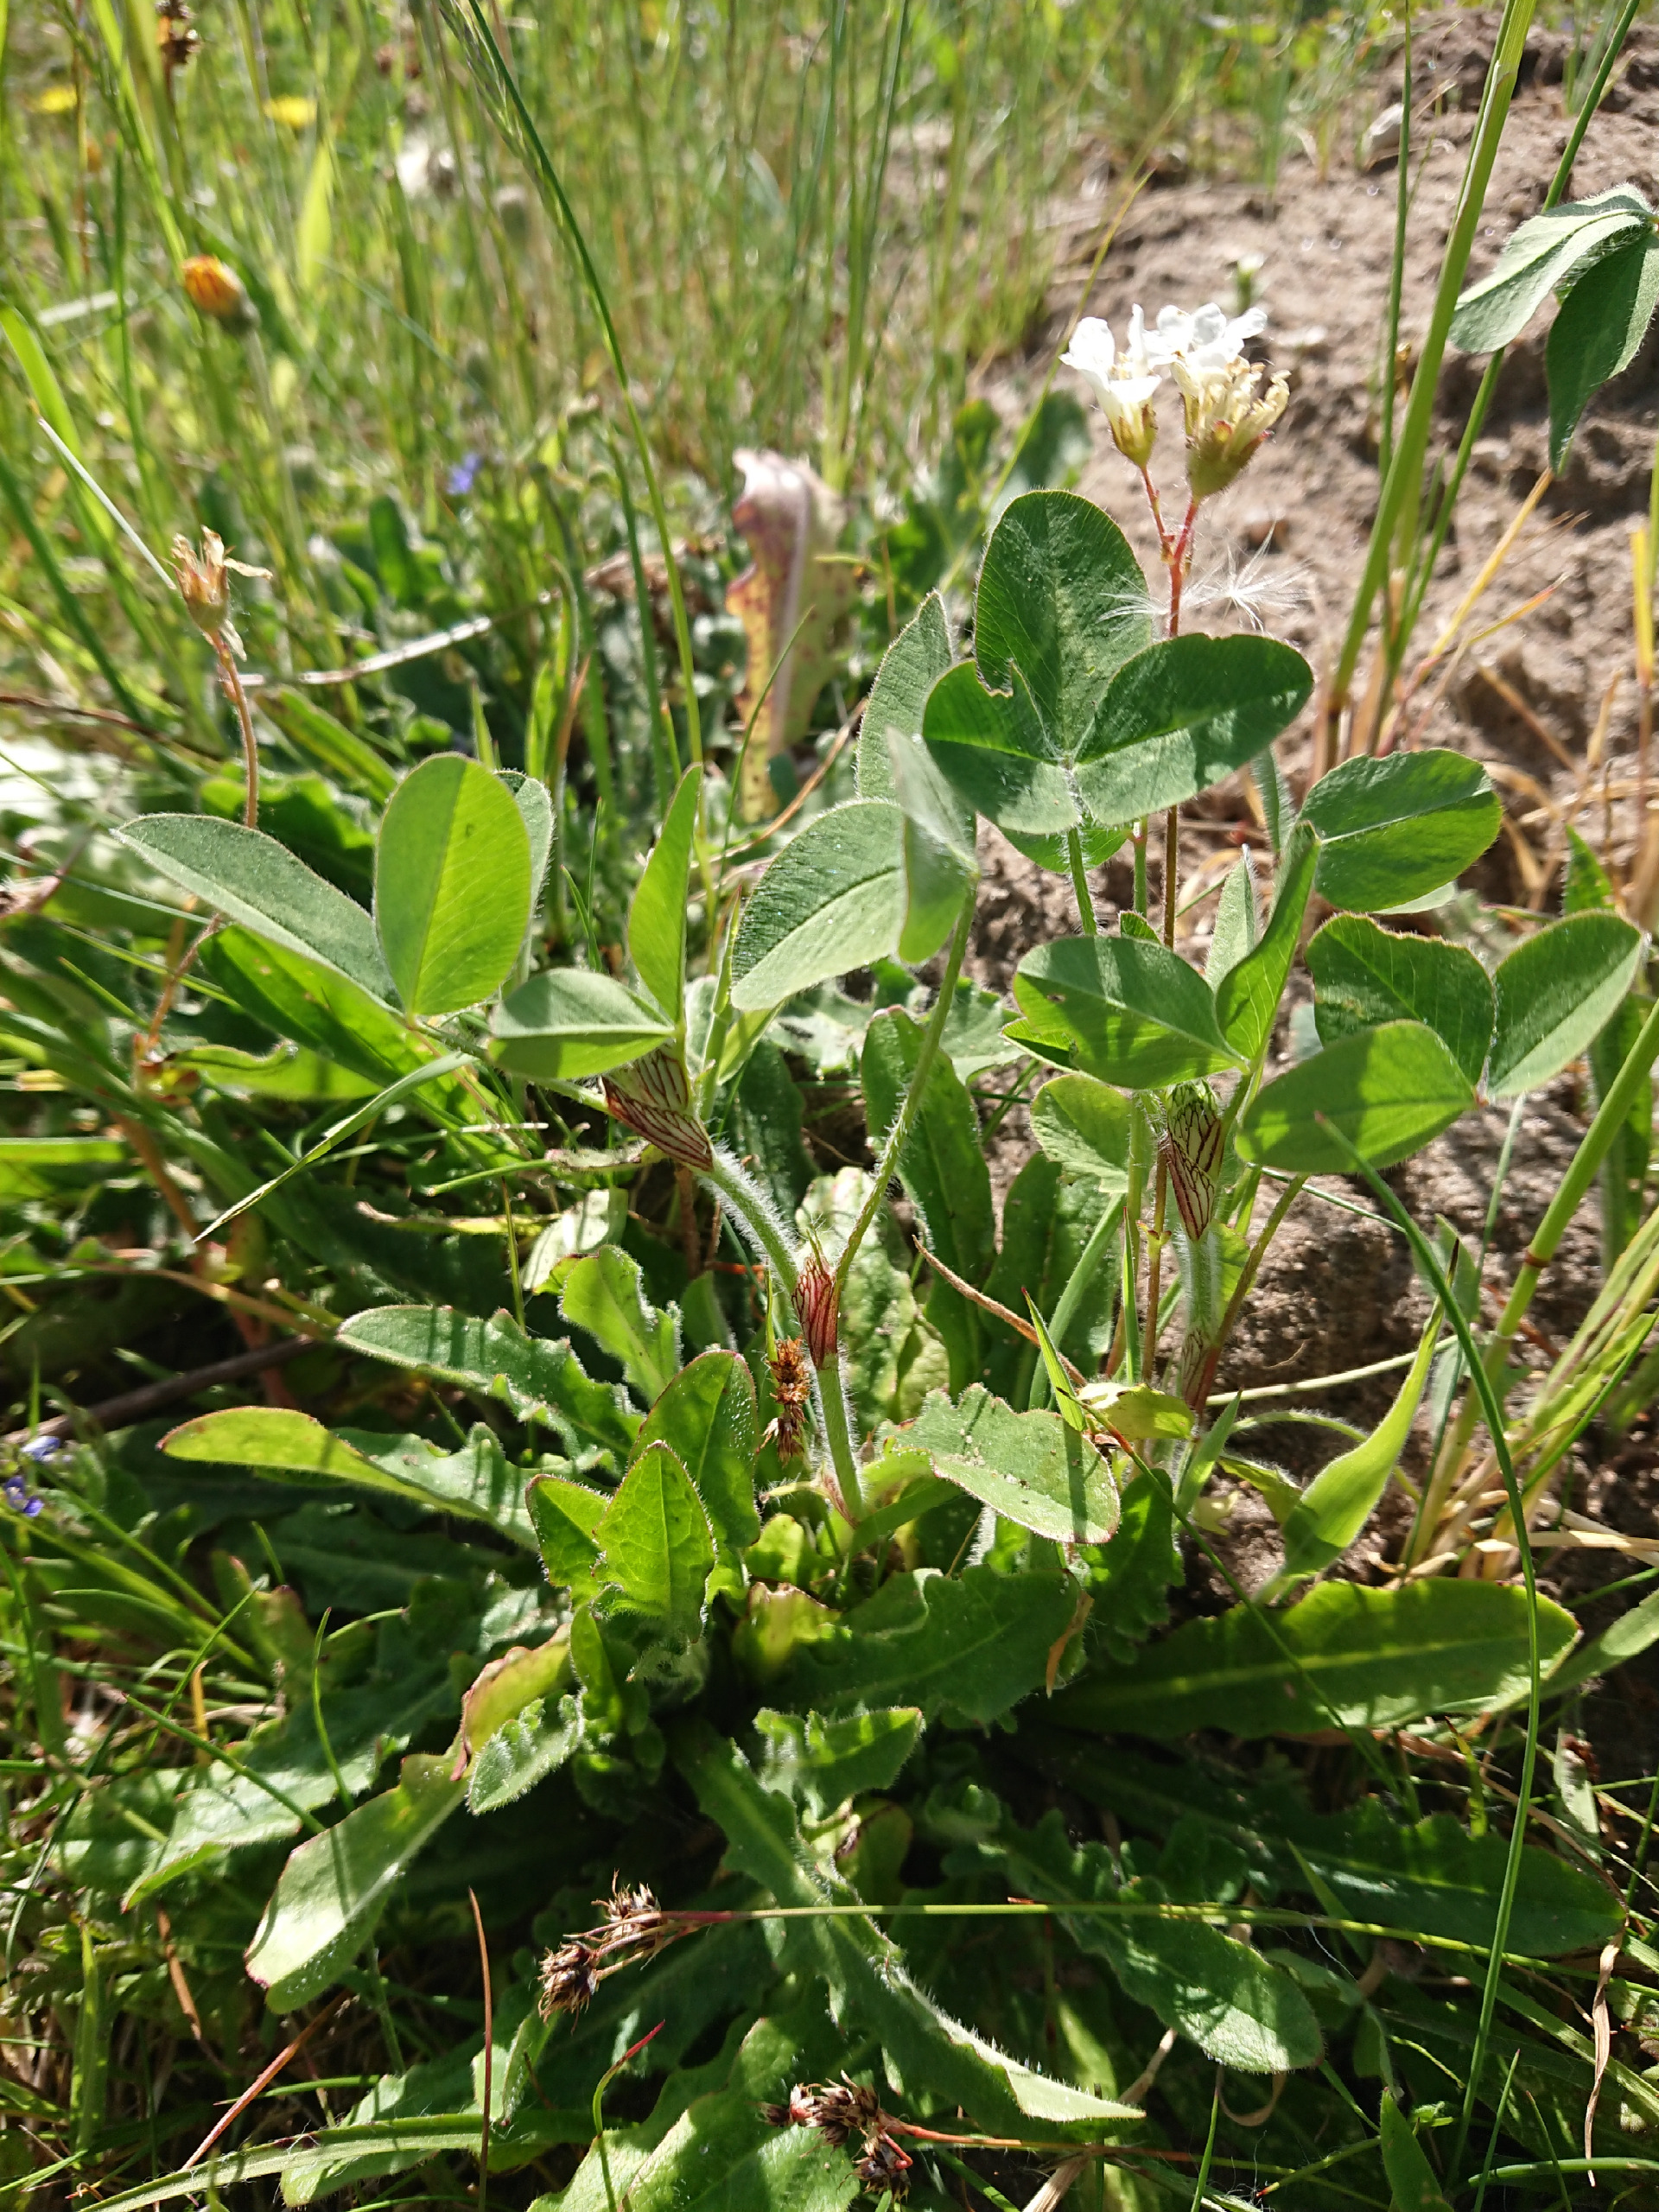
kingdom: Plantae
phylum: Tracheophyta
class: Magnoliopsida
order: Fabales
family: Fabaceae
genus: Trifolium
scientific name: Trifolium pratense
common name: Rød-kløver
